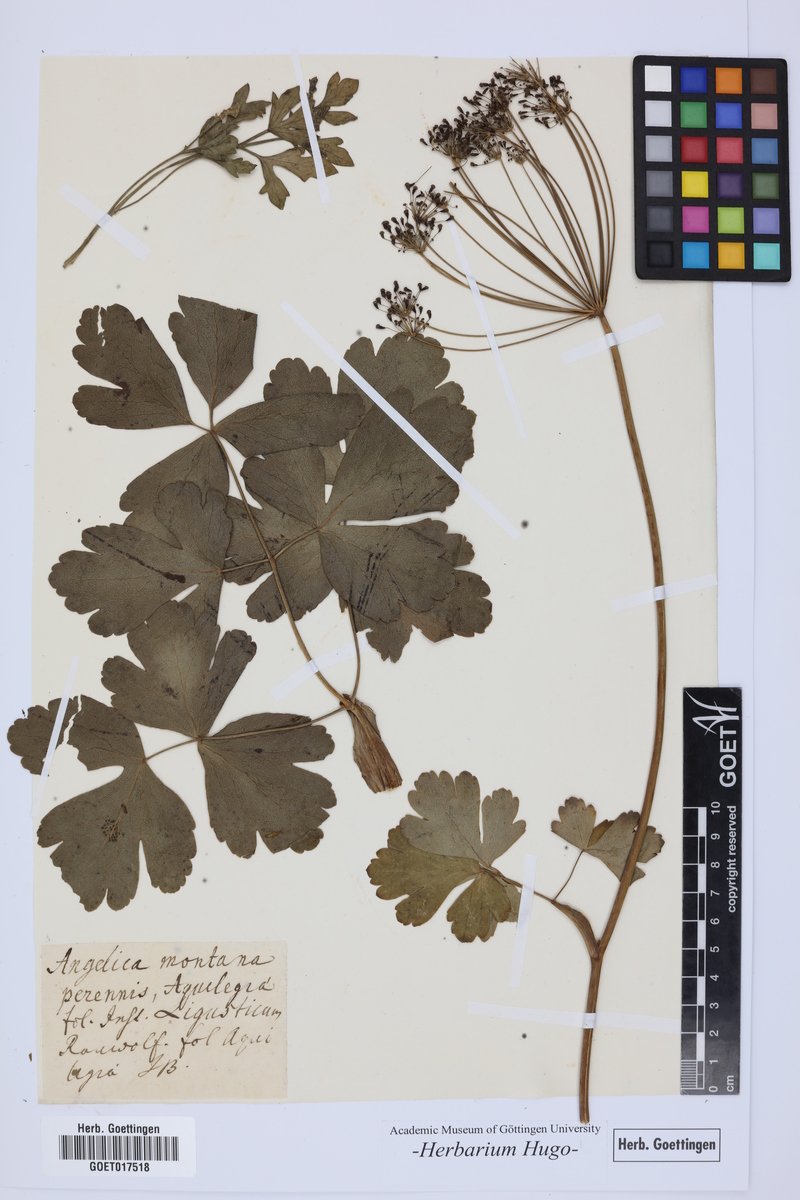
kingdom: Plantae
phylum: Tracheophyta
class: Magnoliopsida
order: Apiales
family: Apiaceae
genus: Laser
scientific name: Laser trilobum
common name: Laser
